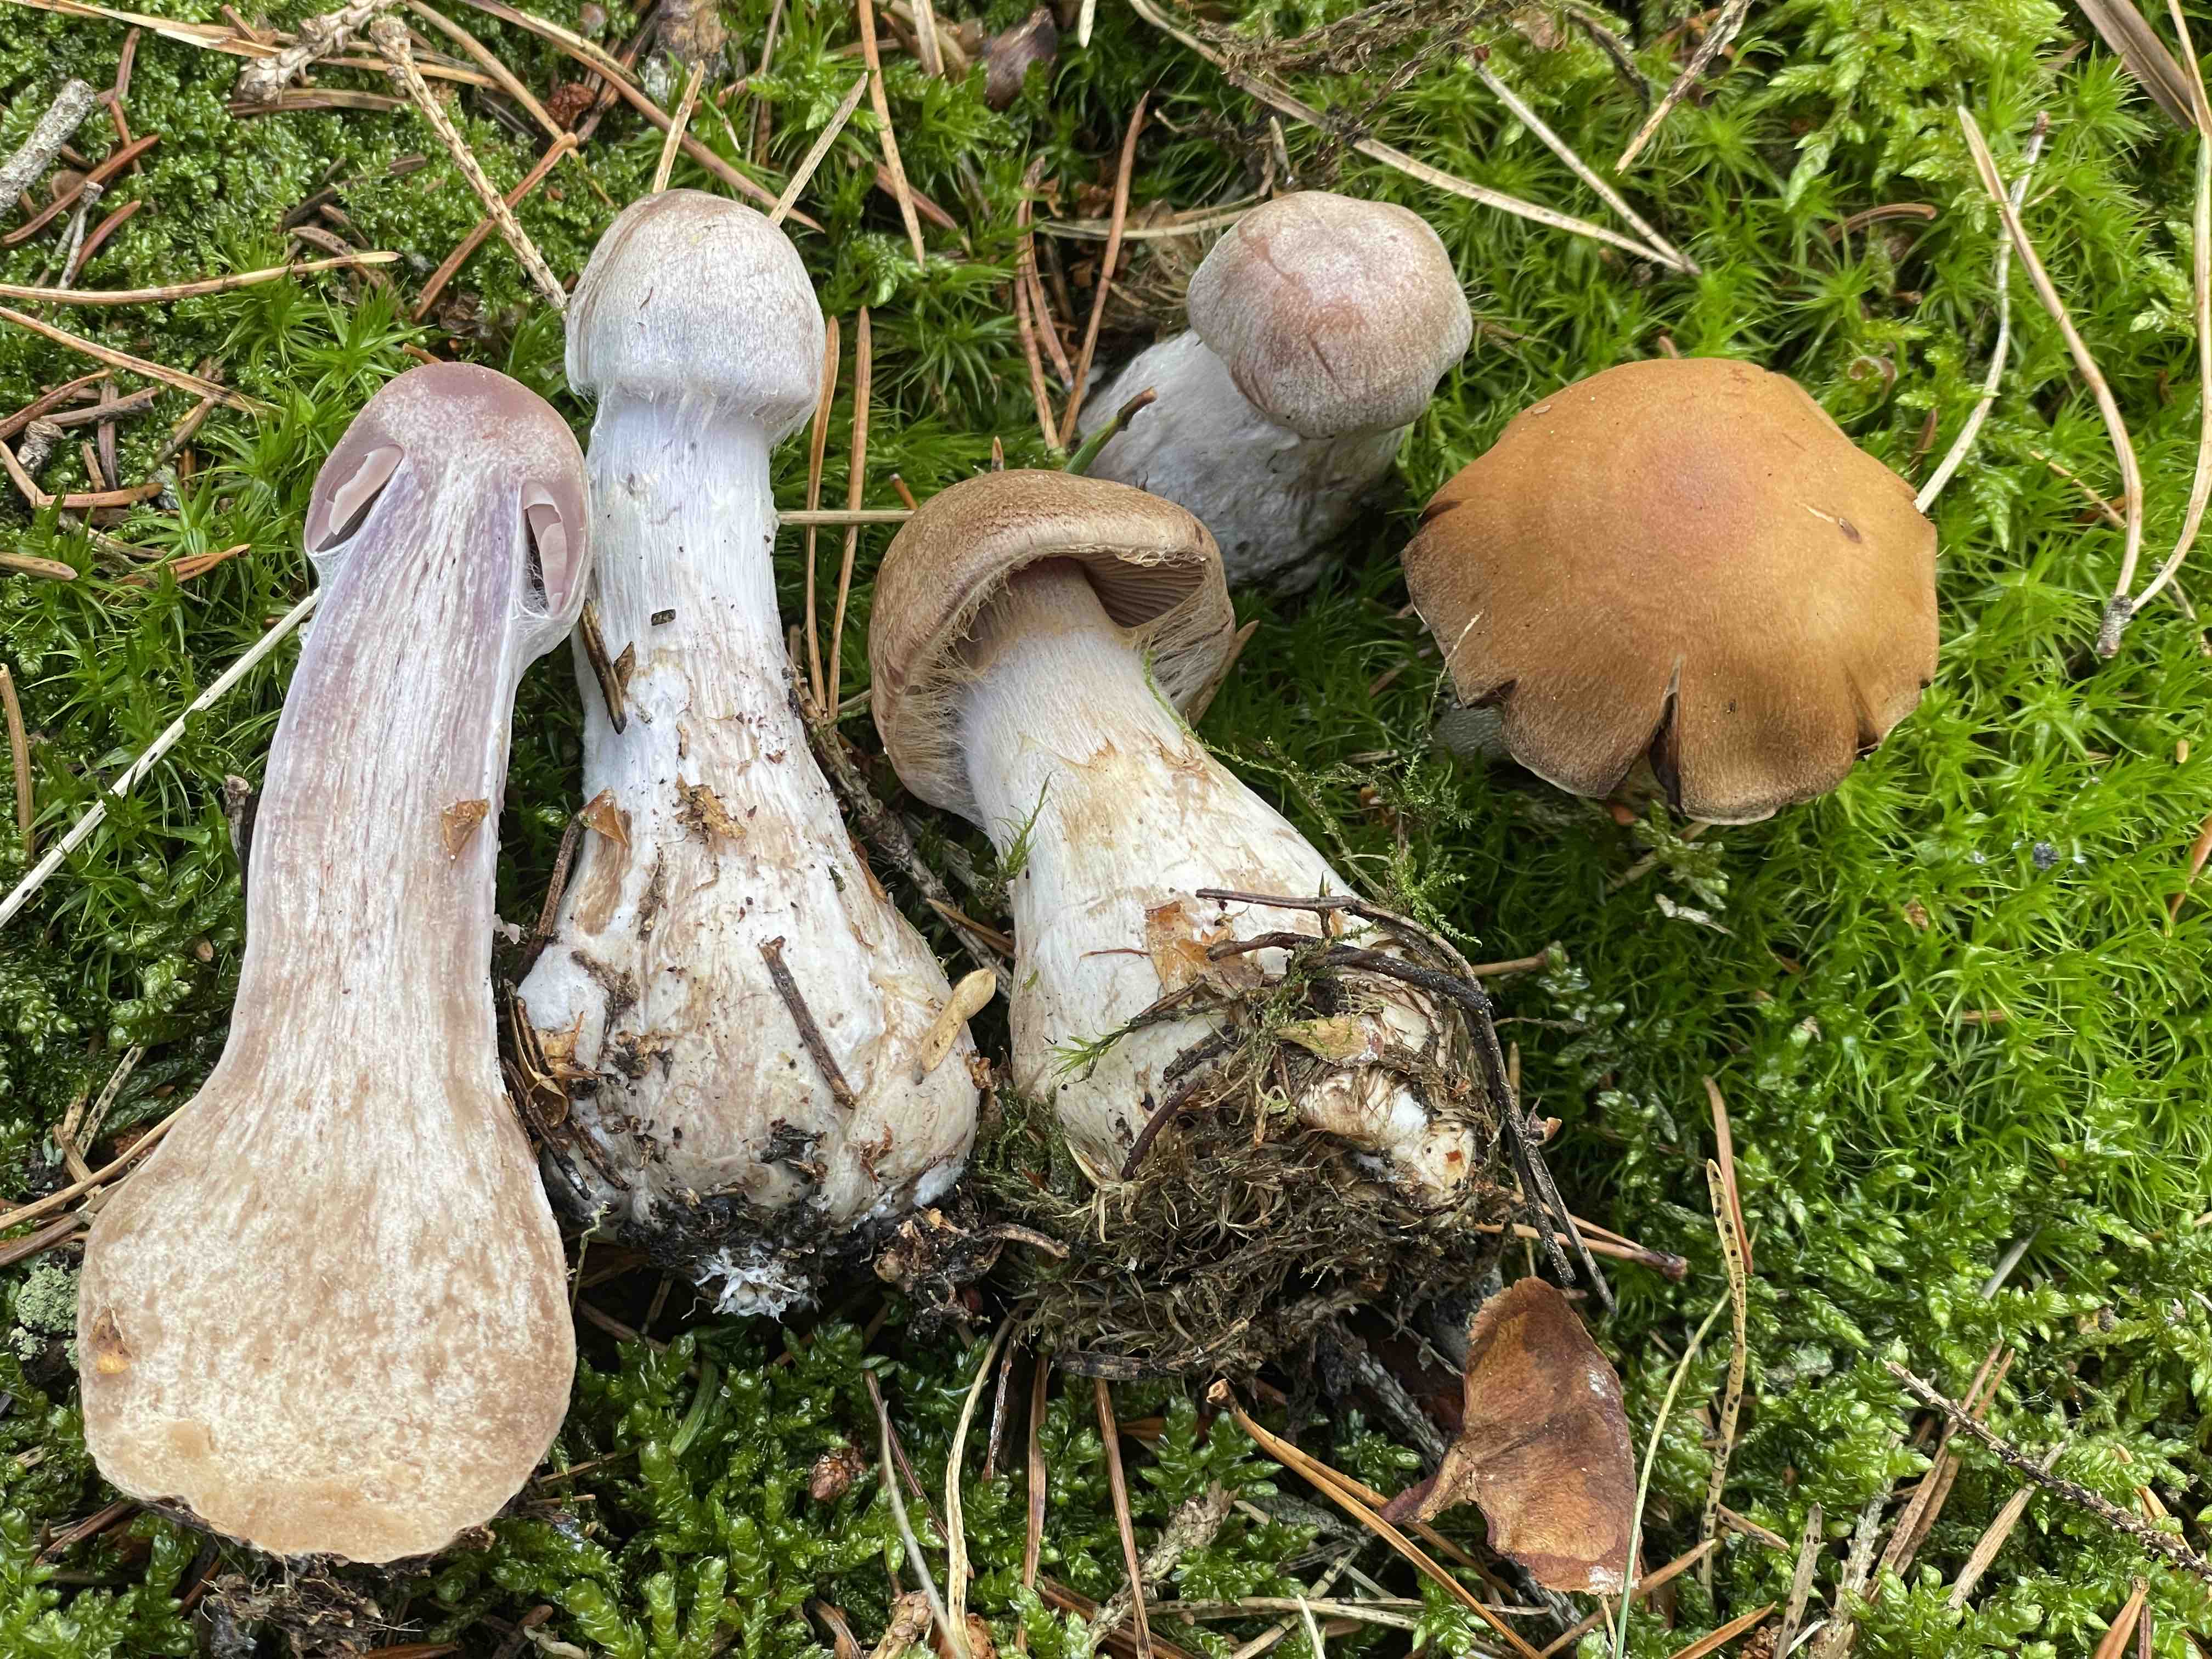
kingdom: Fungi
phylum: Basidiomycota
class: Agaricomycetes
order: Agaricales
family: Cortinariaceae
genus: Cortinarius
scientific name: Cortinarius
